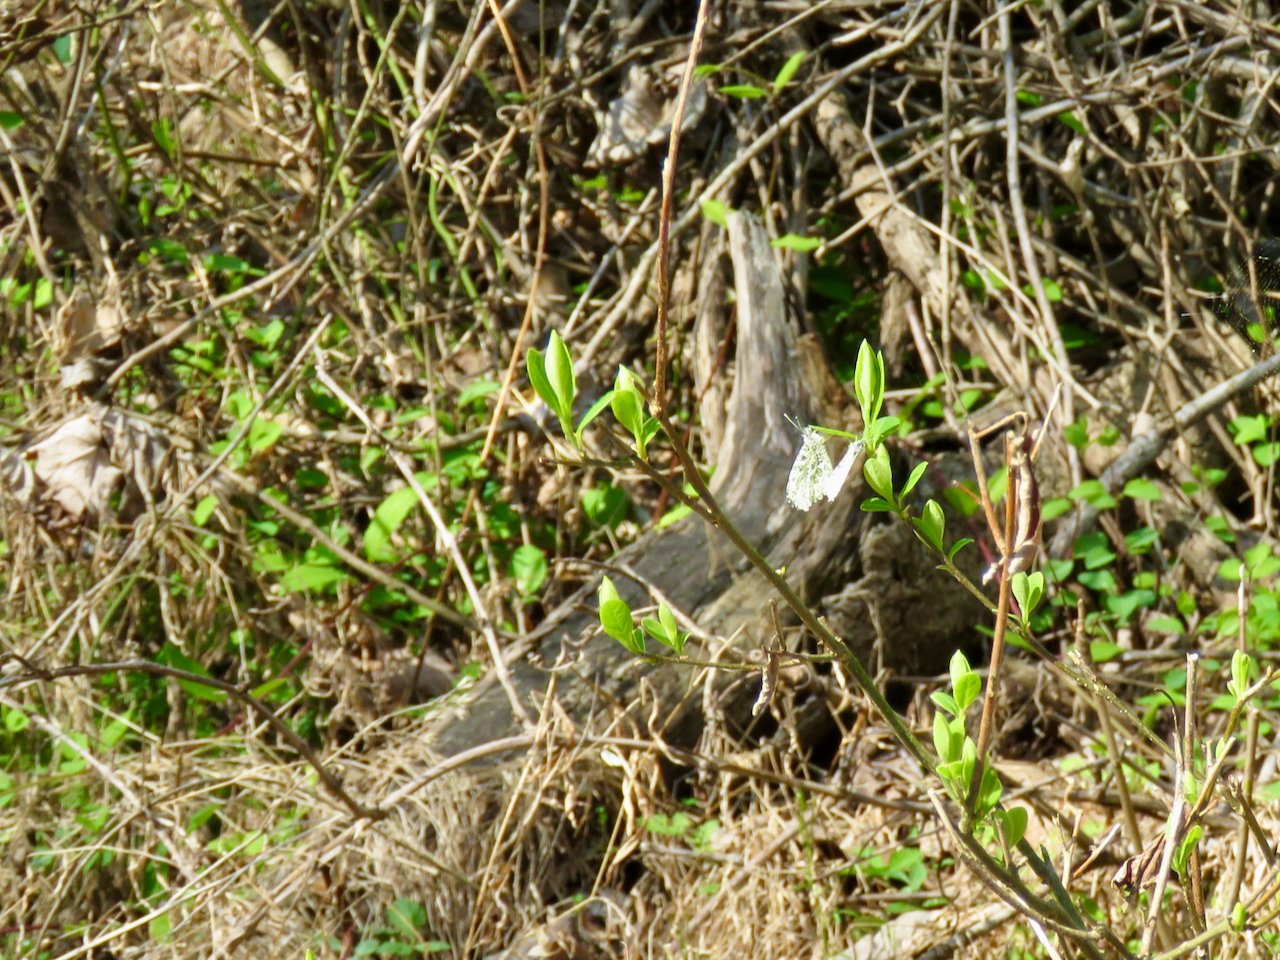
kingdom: Animalia
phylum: Arthropoda
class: Insecta
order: Lepidoptera
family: Pieridae
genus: Anthocharis
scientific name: Anthocharis midea
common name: Falcate Orangetip
